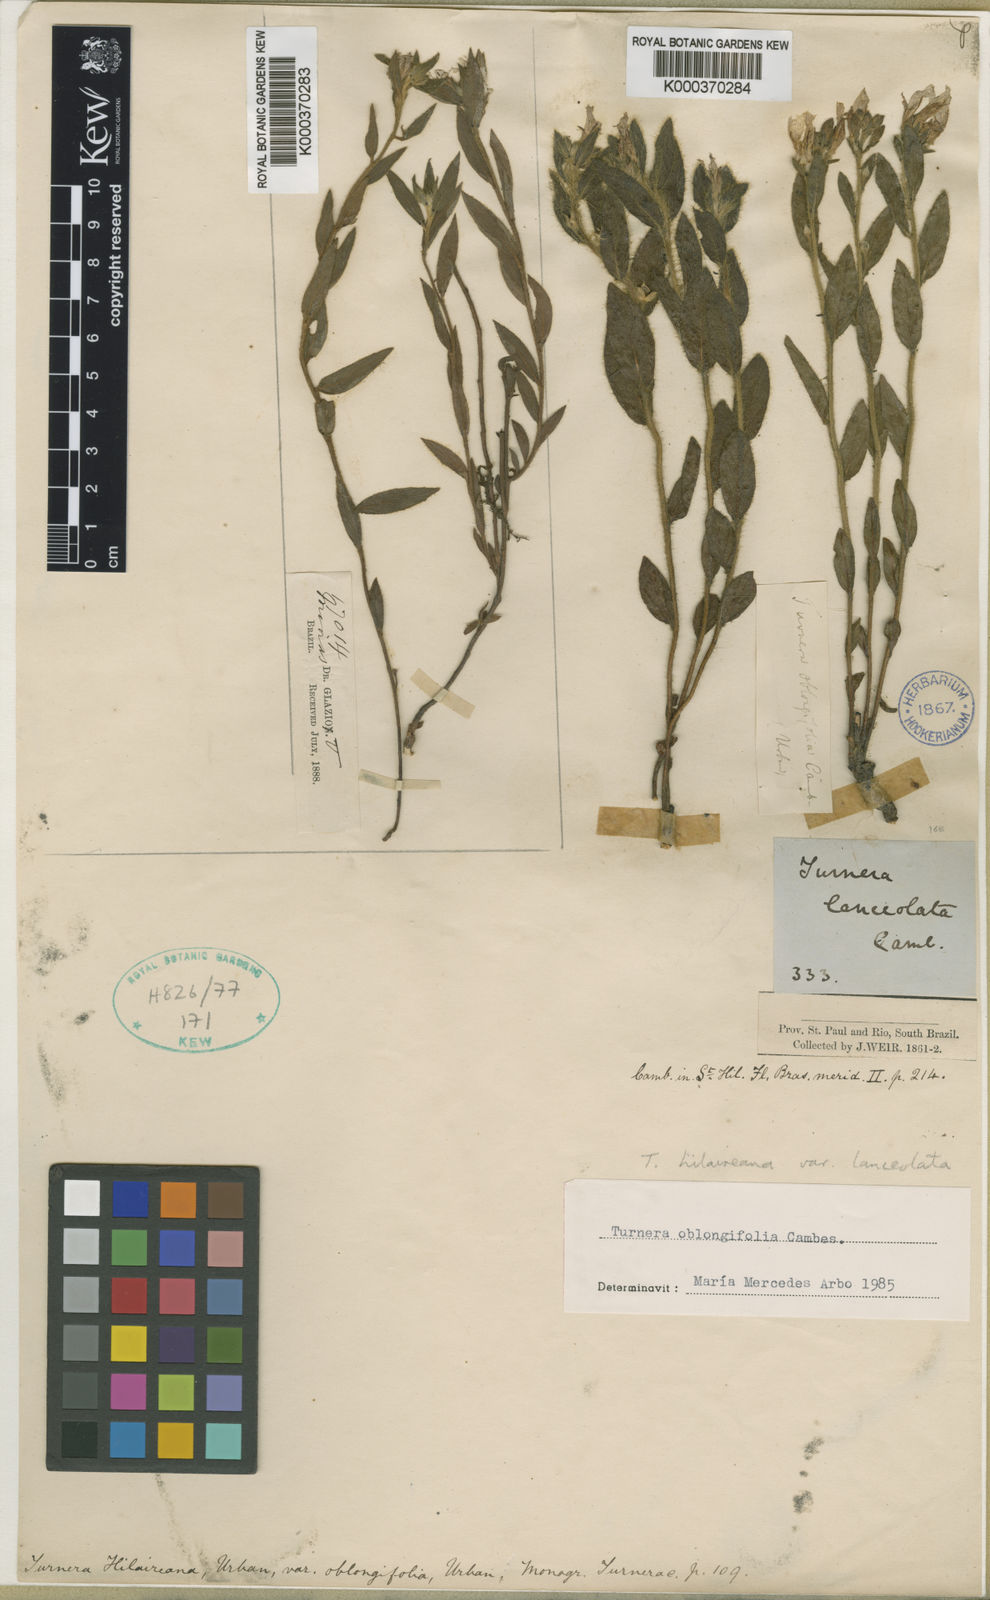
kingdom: Plantae
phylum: Tracheophyta
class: Magnoliopsida
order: Malpighiales
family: Turneraceae
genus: Turnera
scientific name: Turnera oblongifolia
